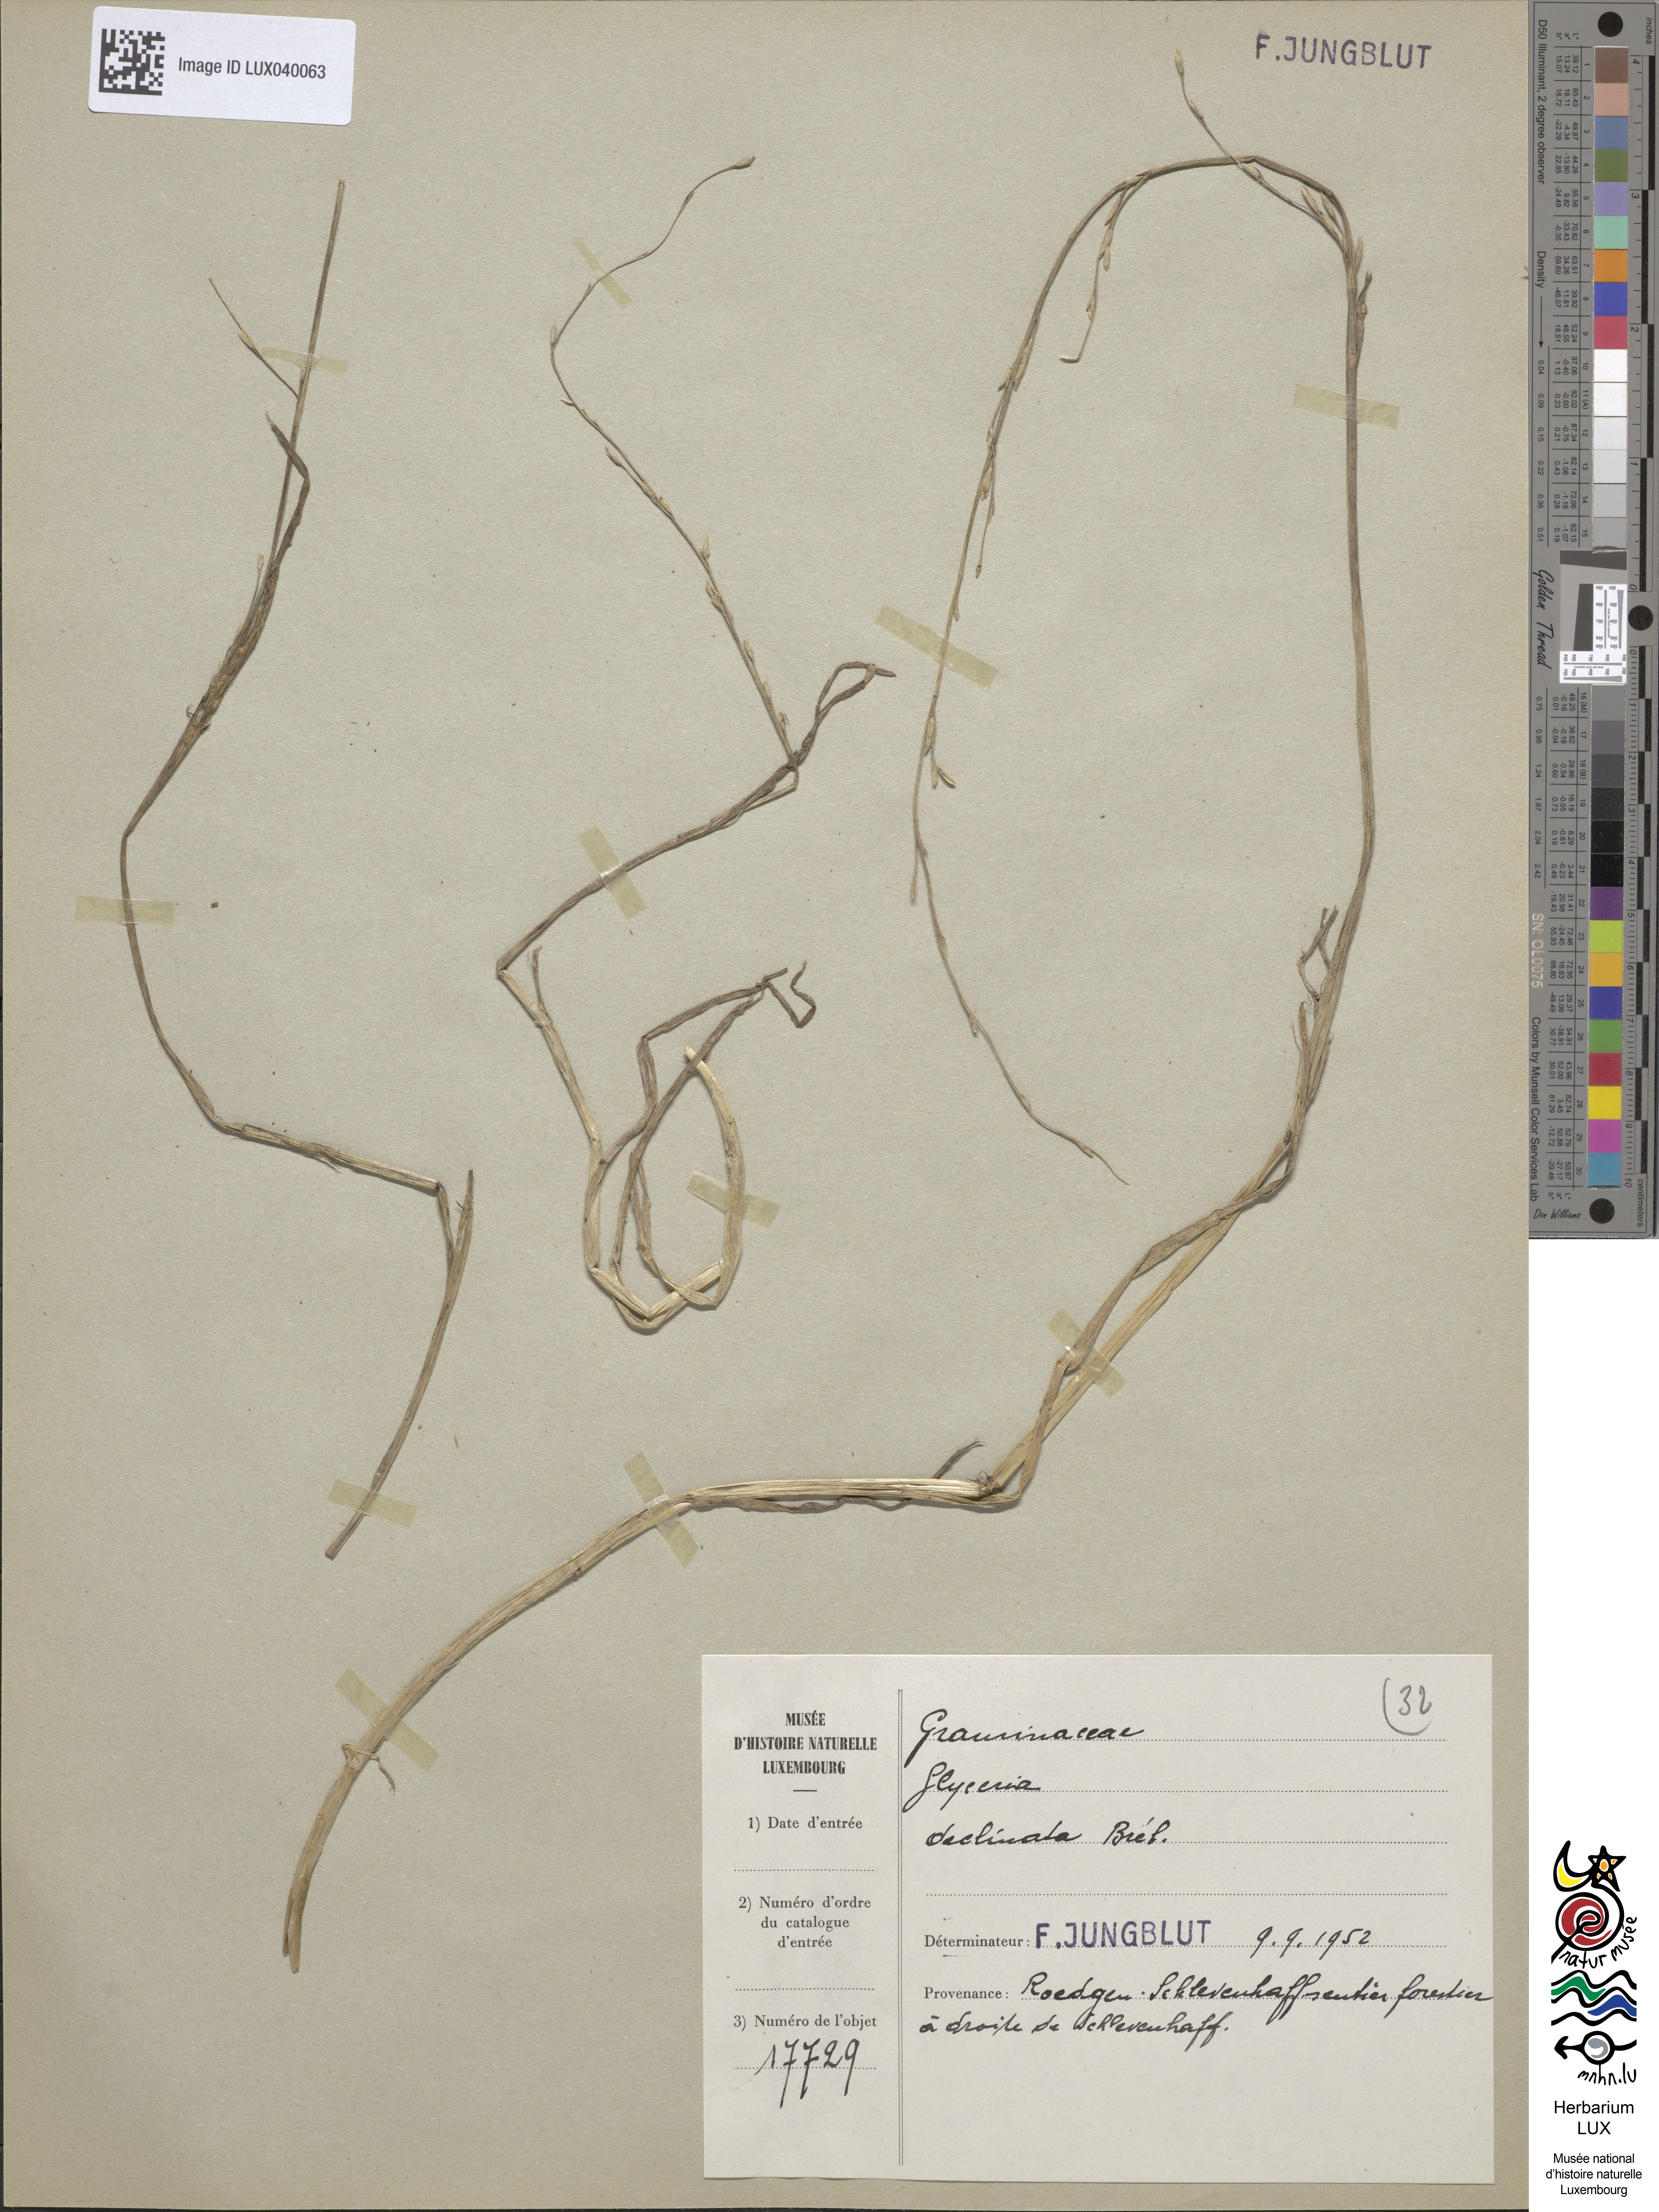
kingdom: Plantae
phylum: Tracheophyta
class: Liliopsida
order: Poales
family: Poaceae
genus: Glyceria
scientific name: Glyceria declinata
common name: Small sweet-grass
